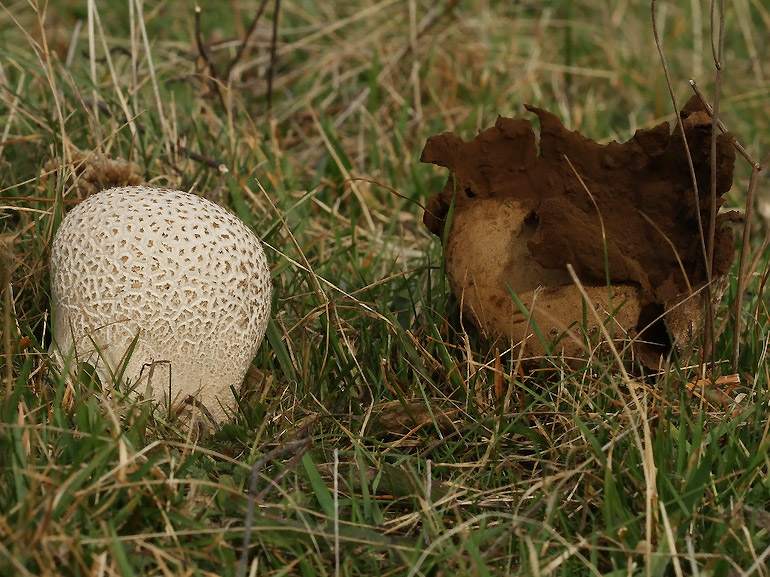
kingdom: Fungi
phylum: Basidiomycota
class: Agaricomycetes
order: Agaricales
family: Lycoperdaceae
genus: Bovistella
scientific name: Bovistella utriformis
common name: skællet støvbold
